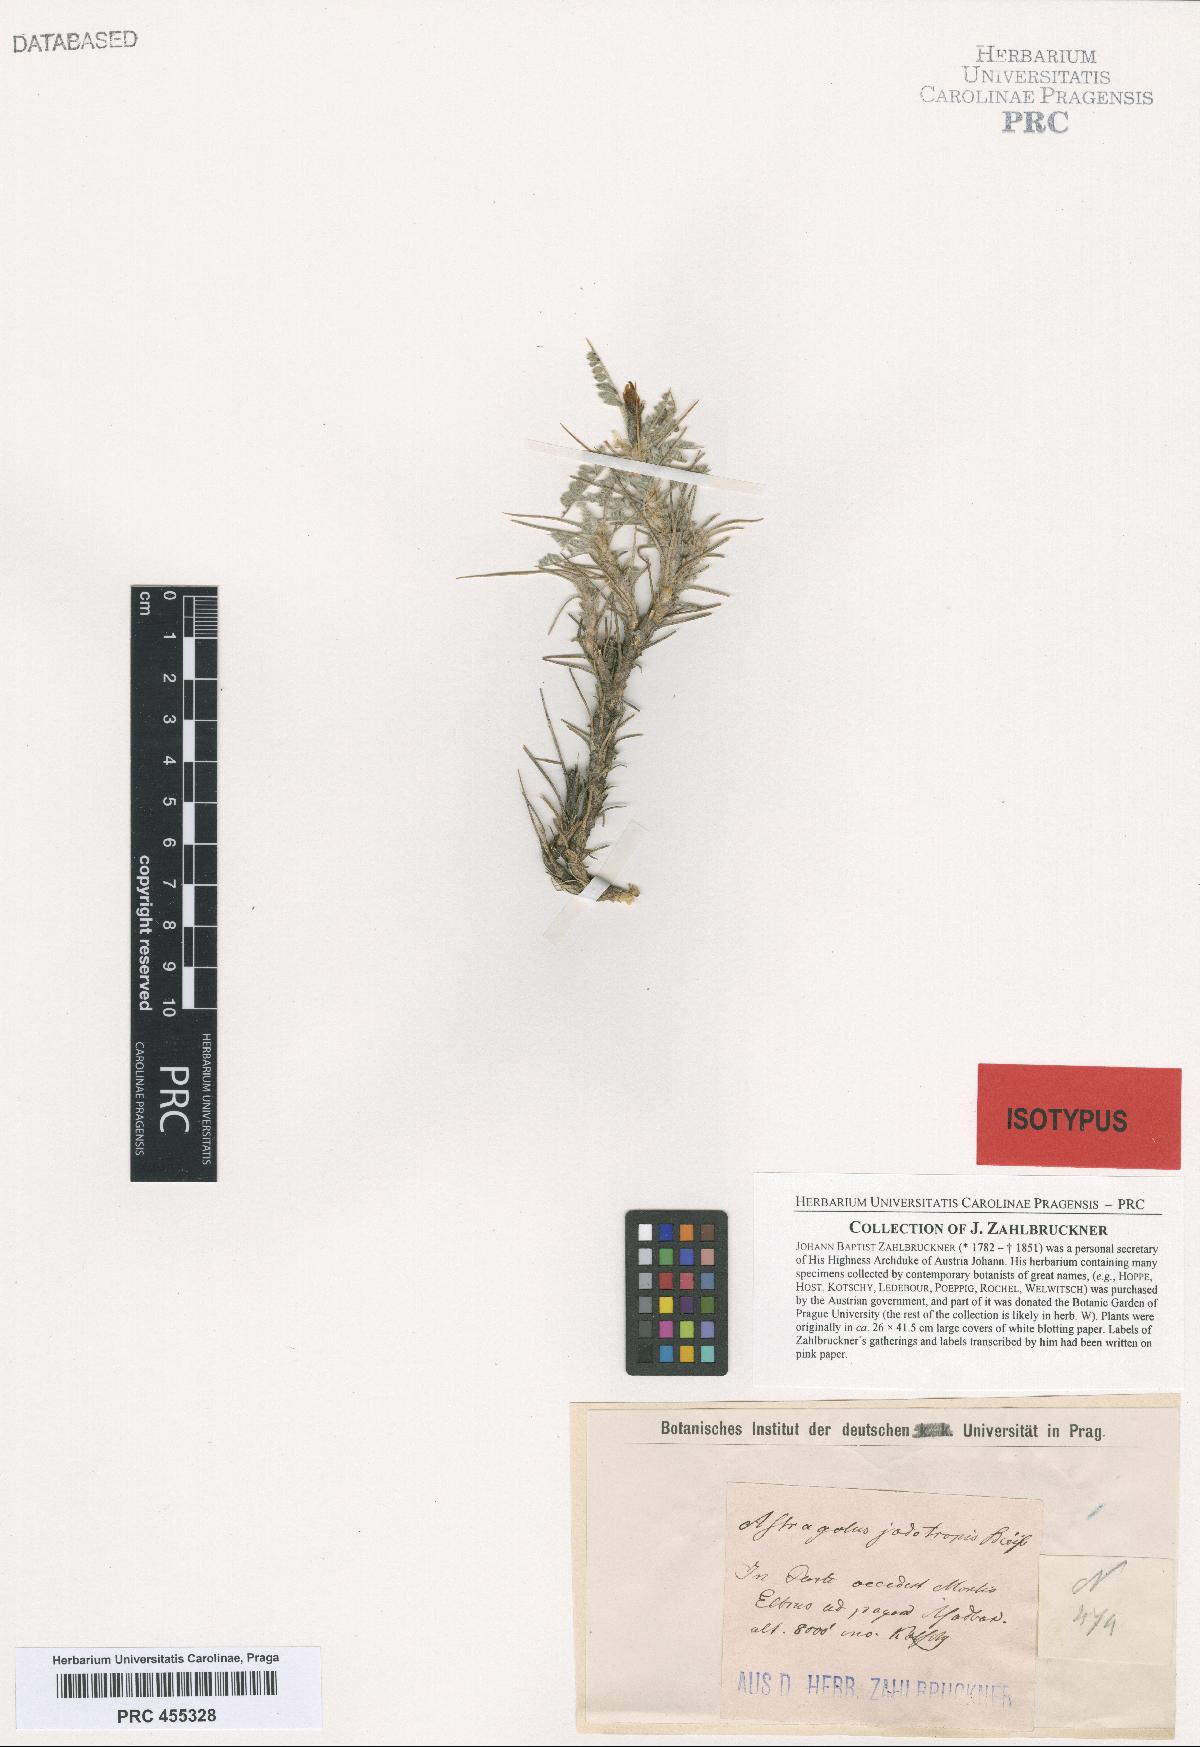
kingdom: Plantae
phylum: Tracheophyta
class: Magnoliopsida
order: Fabales
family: Fabaceae
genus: Astragalus
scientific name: Astragalus iodotropis
